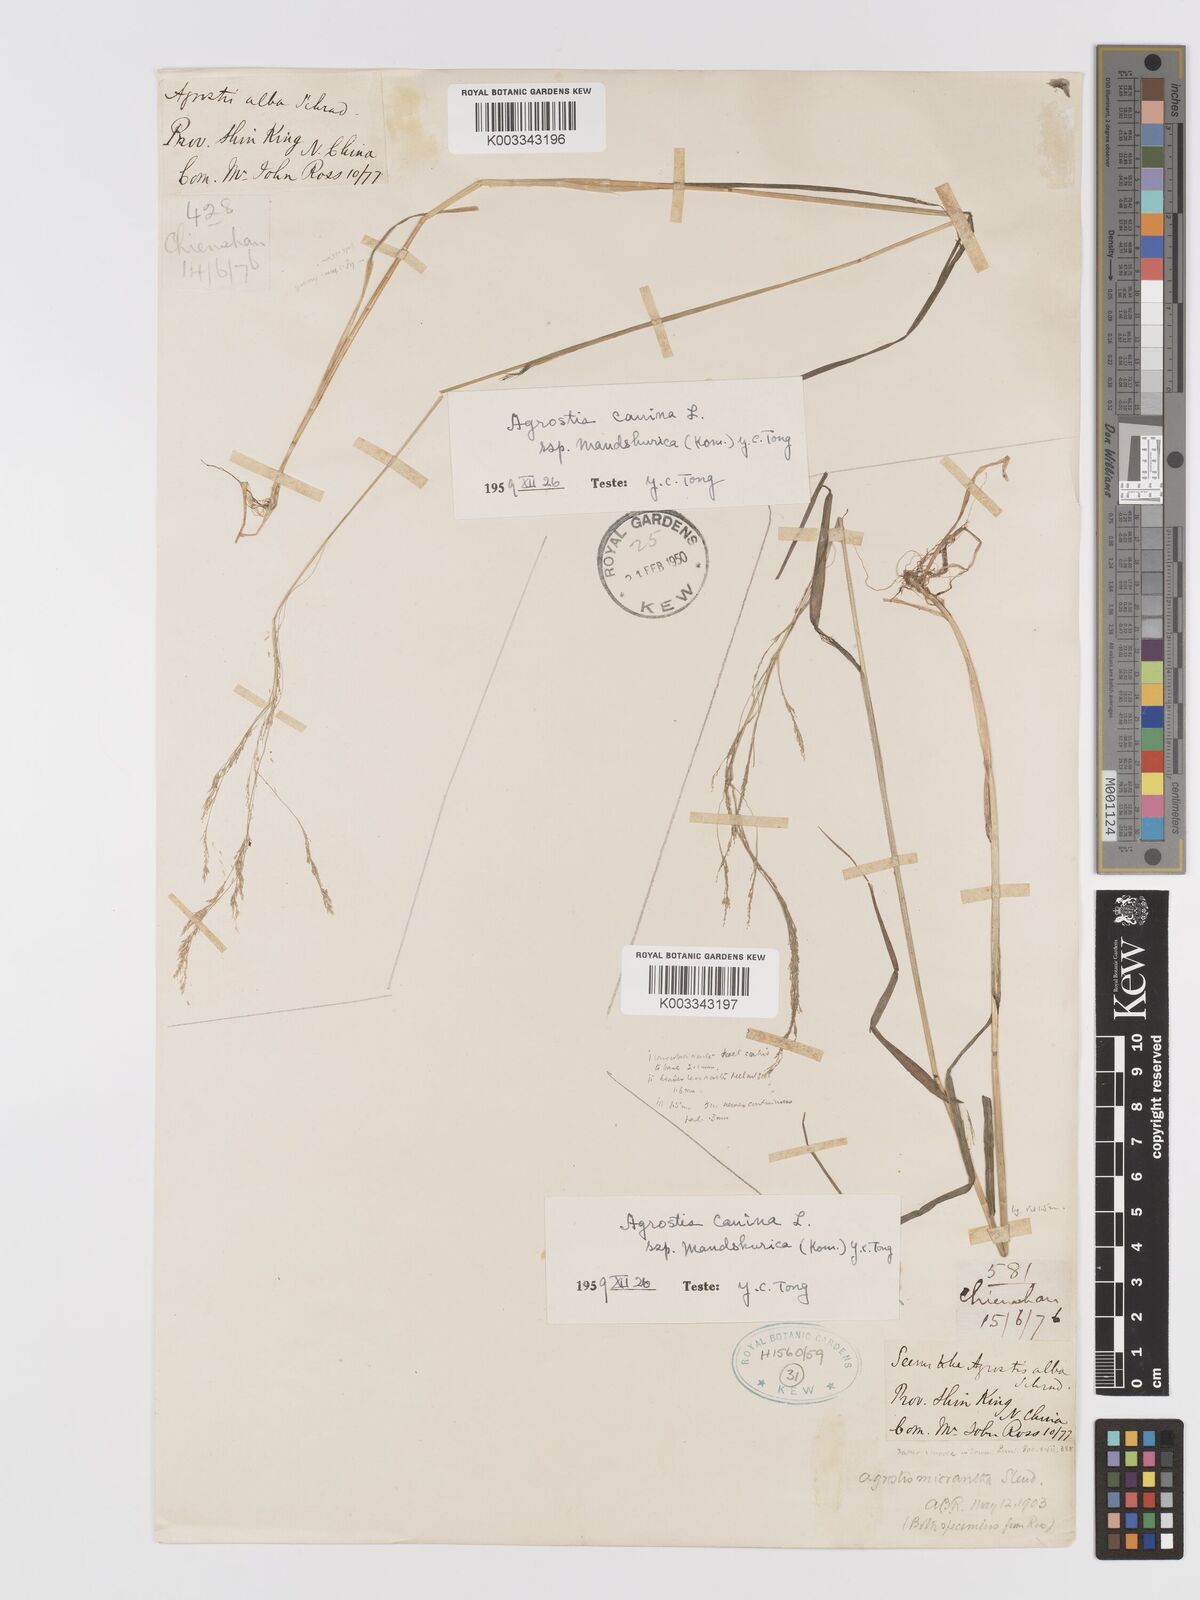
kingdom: Plantae
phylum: Tracheophyta
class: Liliopsida
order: Poales
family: Poaceae
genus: Agrostis
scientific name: Agrostis canina
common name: Velvet bent
